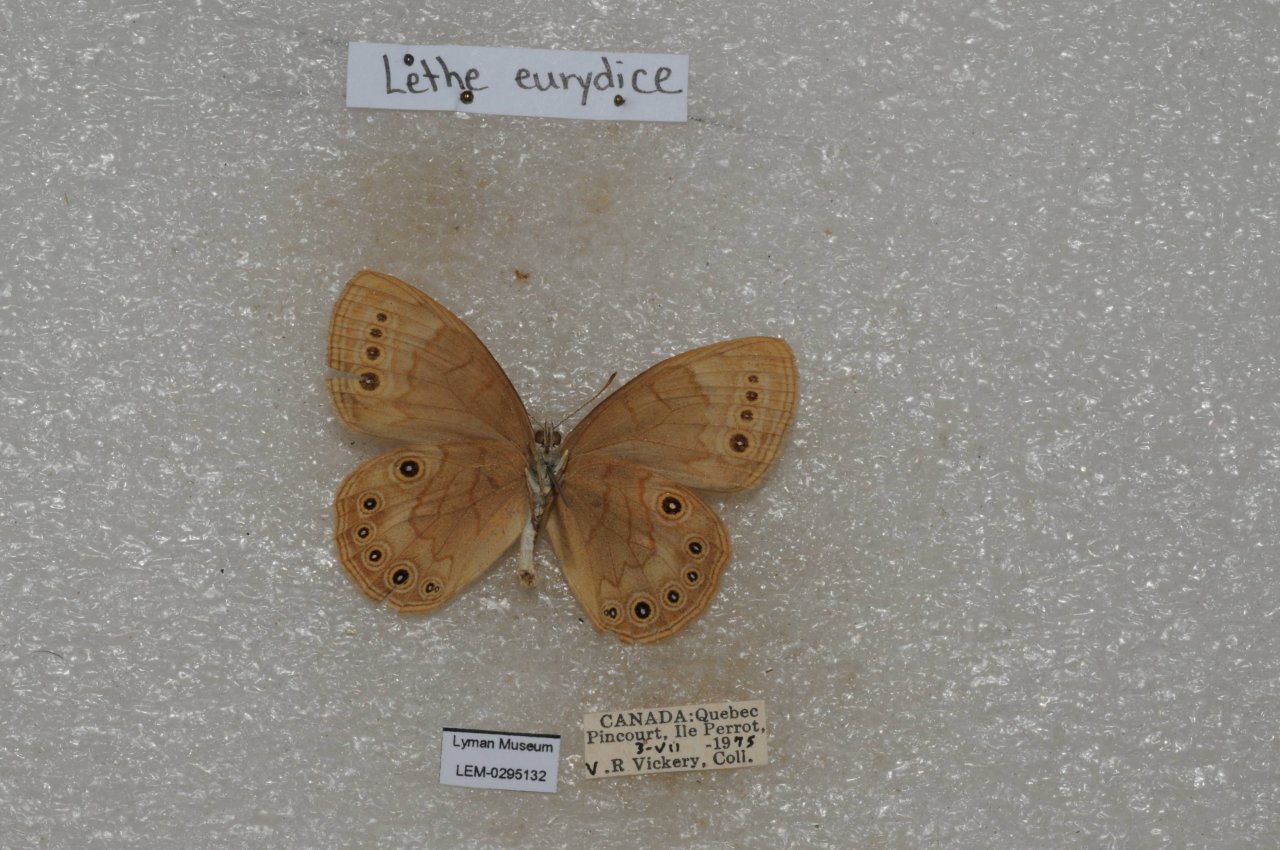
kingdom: Animalia
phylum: Arthropoda
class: Insecta
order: Lepidoptera
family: Nymphalidae
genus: Lethe
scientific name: Lethe eurydice
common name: Eyed Brown
